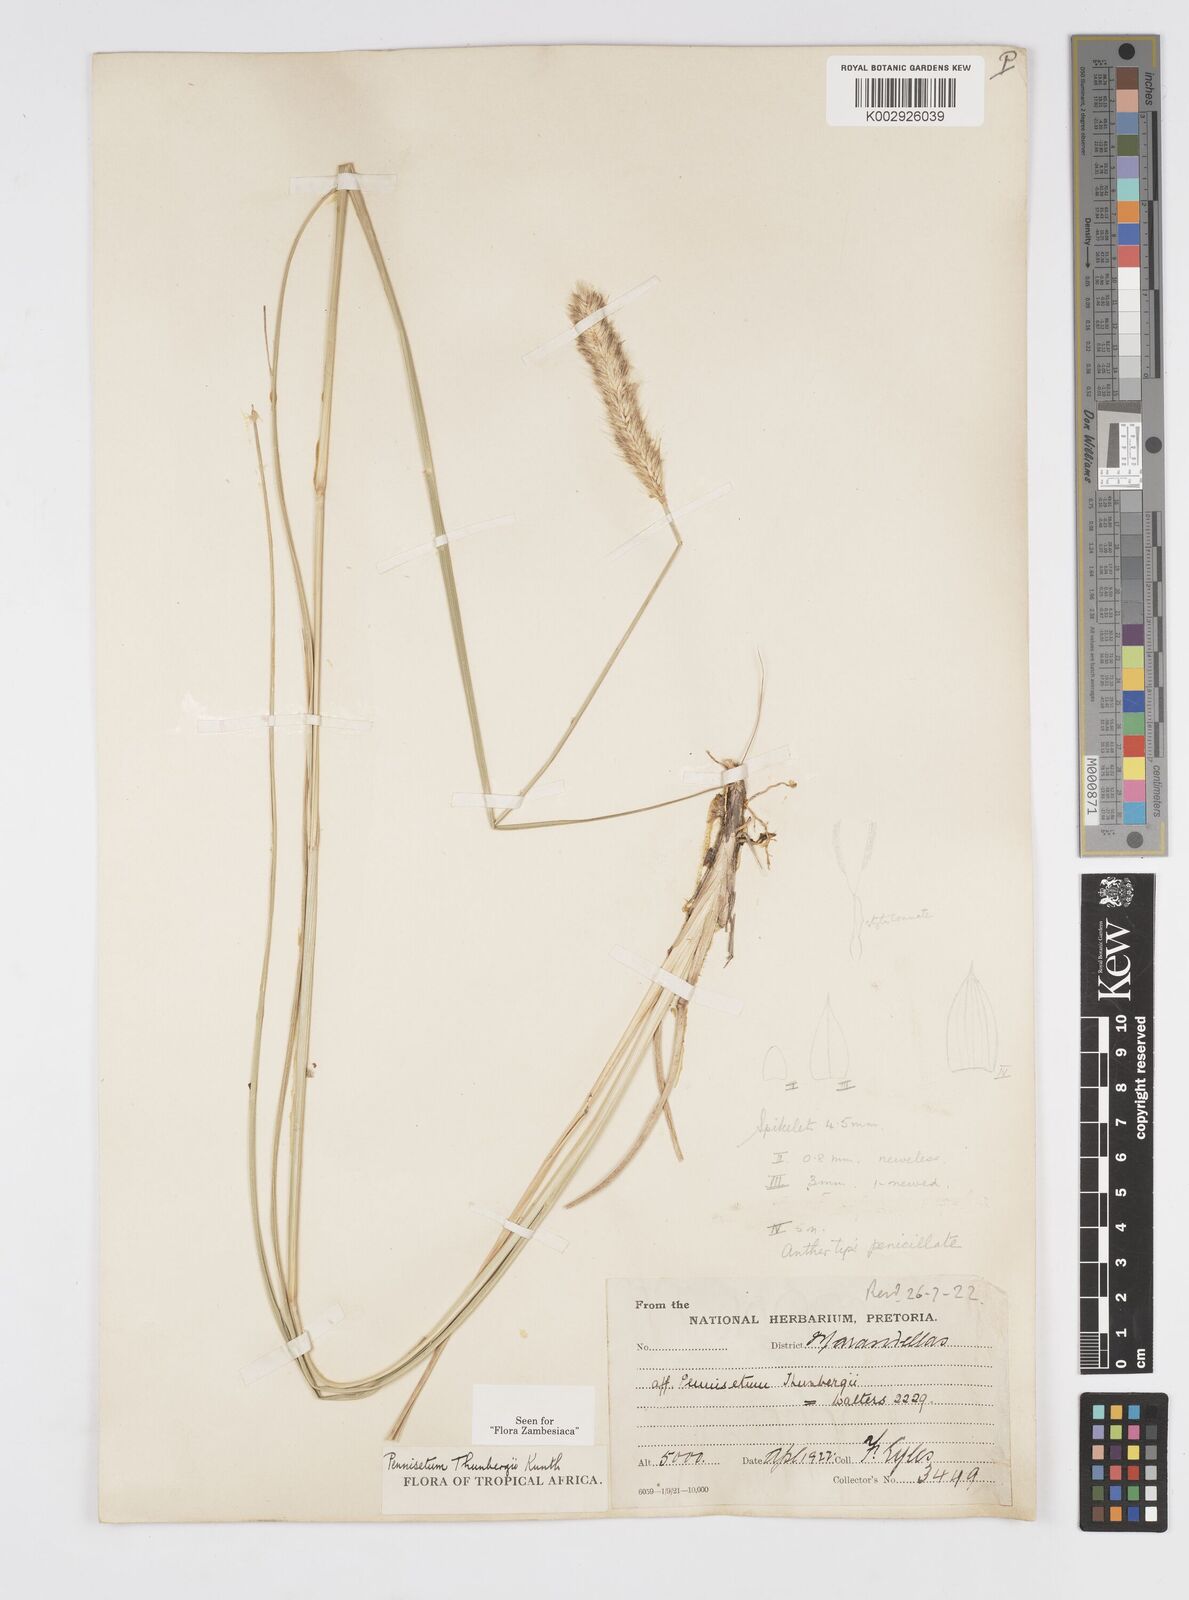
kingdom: Plantae
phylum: Tracheophyta
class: Liliopsida
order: Poales
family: Poaceae
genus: Cenchrus
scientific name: Cenchrus geniculatus
